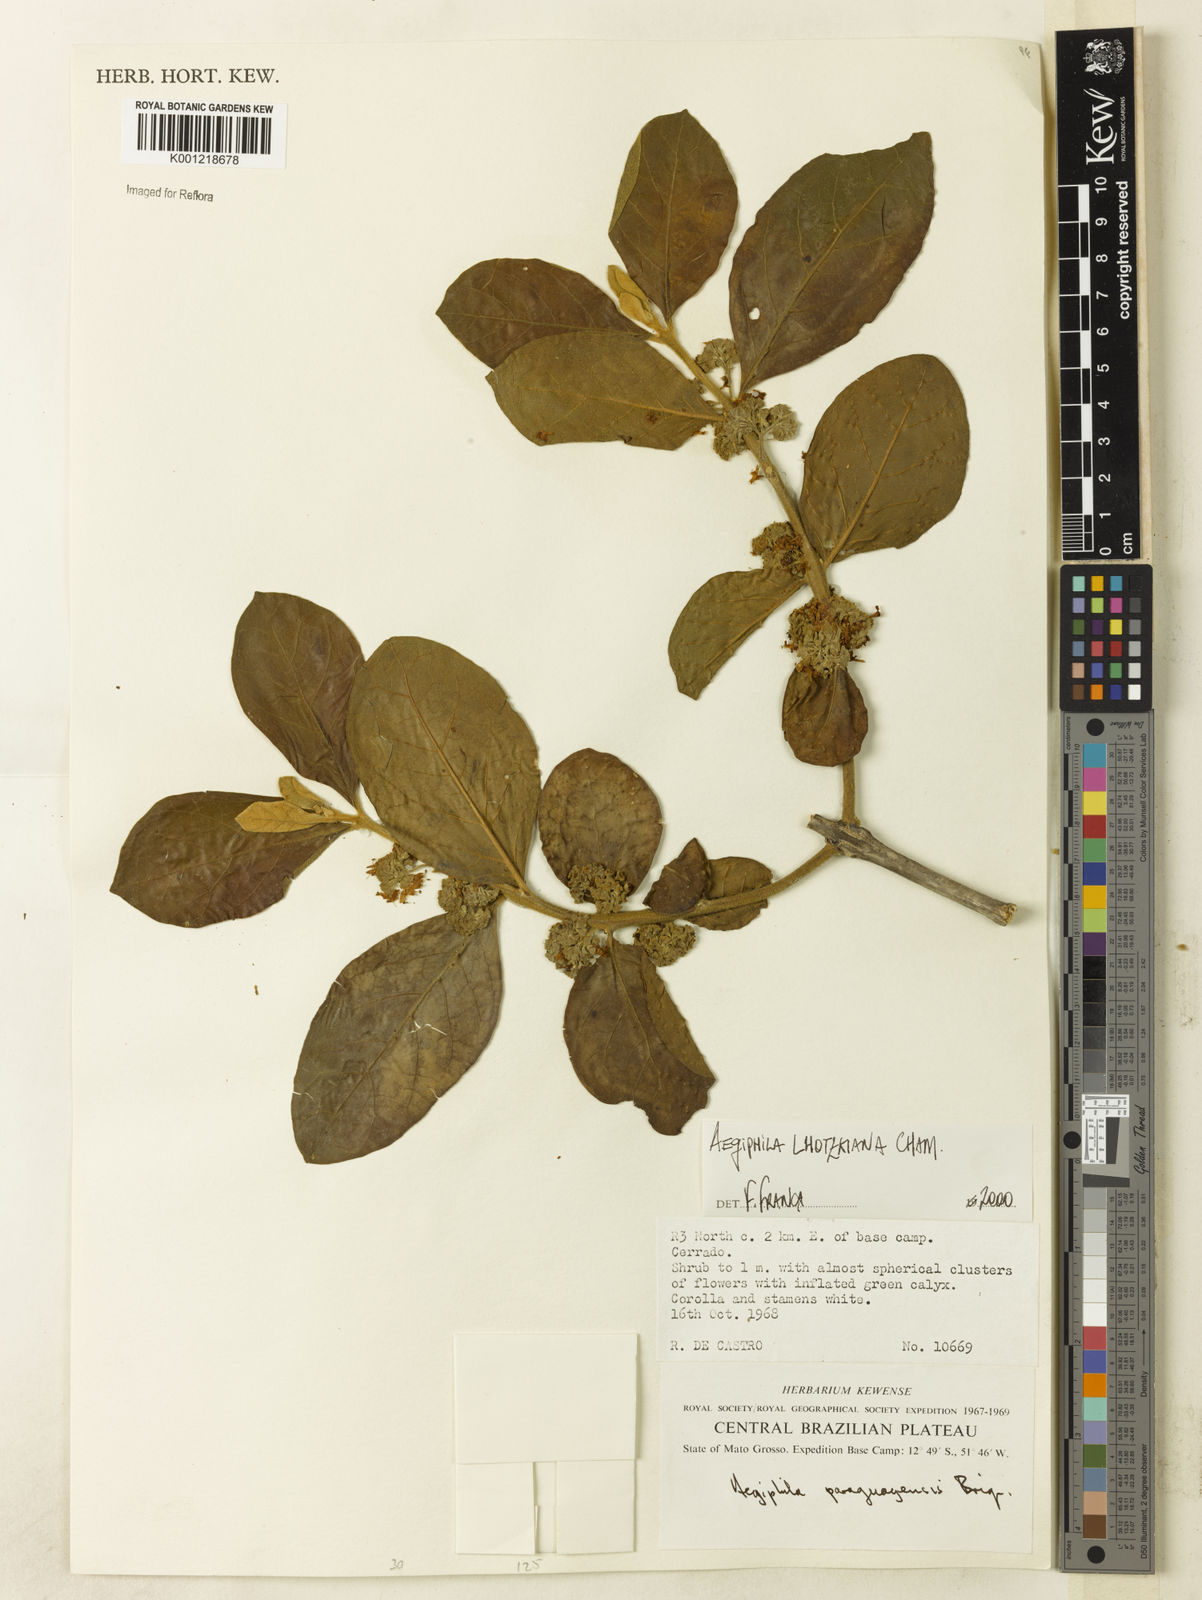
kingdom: Plantae
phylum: Tracheophyta
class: Magnoliopsida
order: Lamiales
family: Lamiaceae
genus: Aegiphila
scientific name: Aegiphila verticillata
